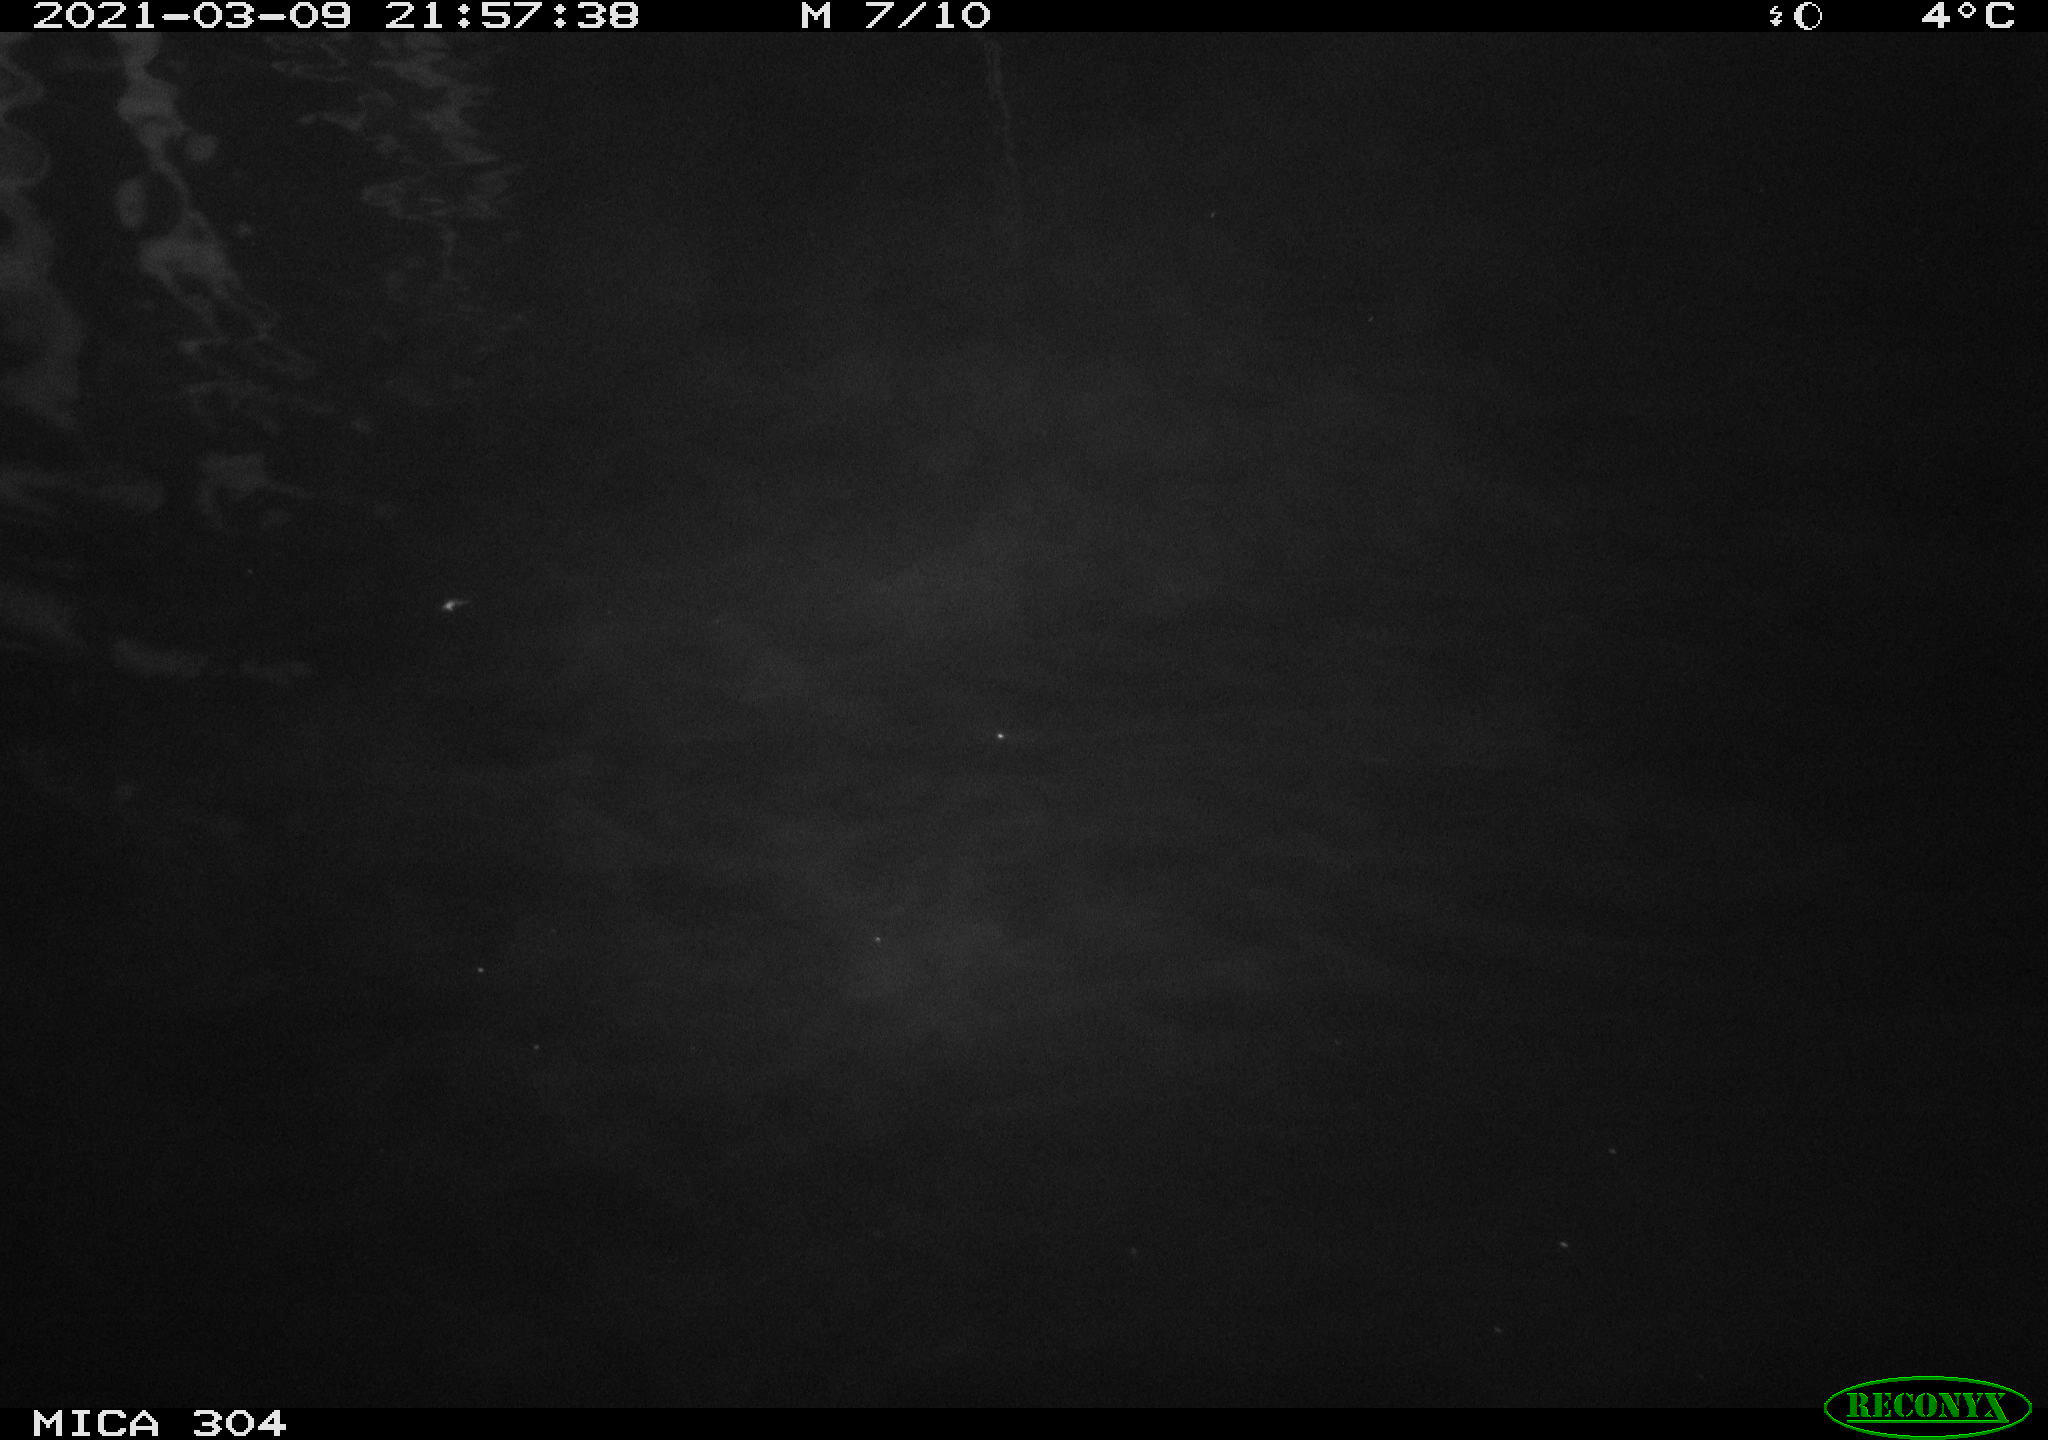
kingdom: Animalia
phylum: Chordata
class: Mammalia
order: Rodentia
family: Cricetidae
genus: Ondatra
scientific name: Ondatra zibethicus
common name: Muskrat
